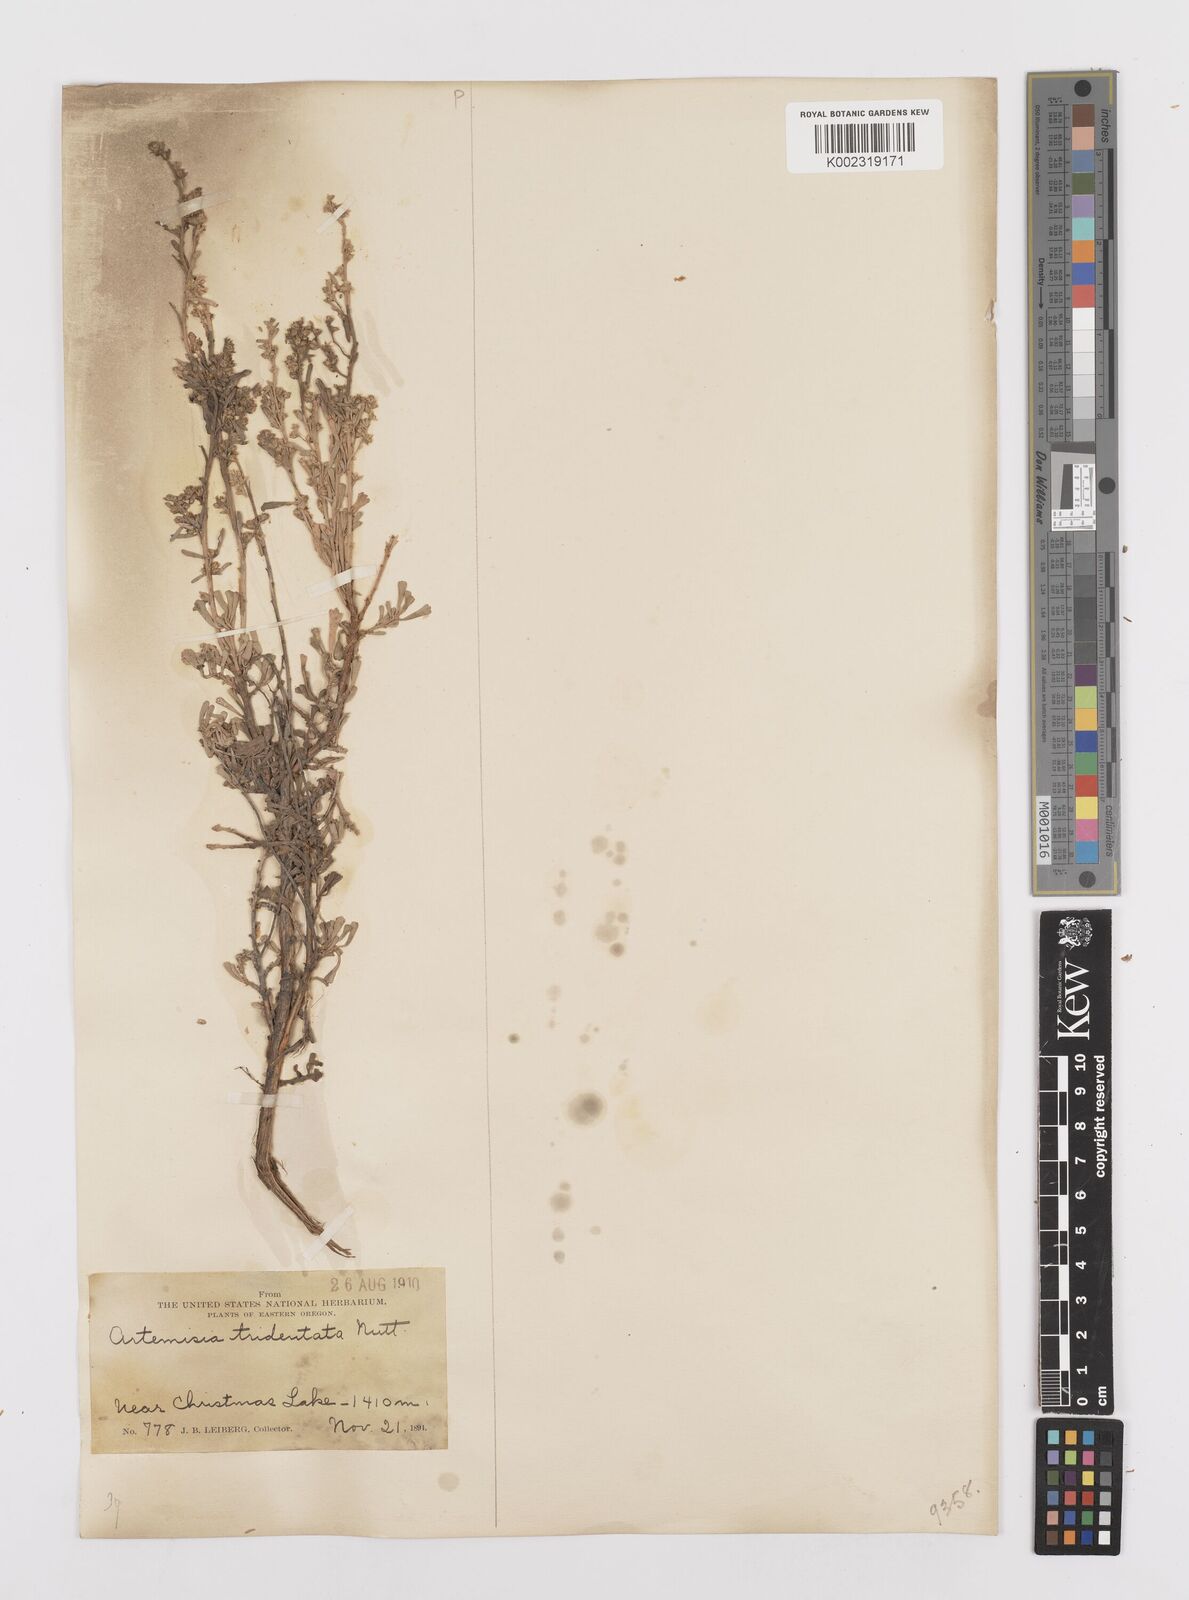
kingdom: Plantae
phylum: Tracheophyta
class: Magnoliopsida
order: Asterales
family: Asteraceae
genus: Artemisia
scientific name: Artemisia tridentata
